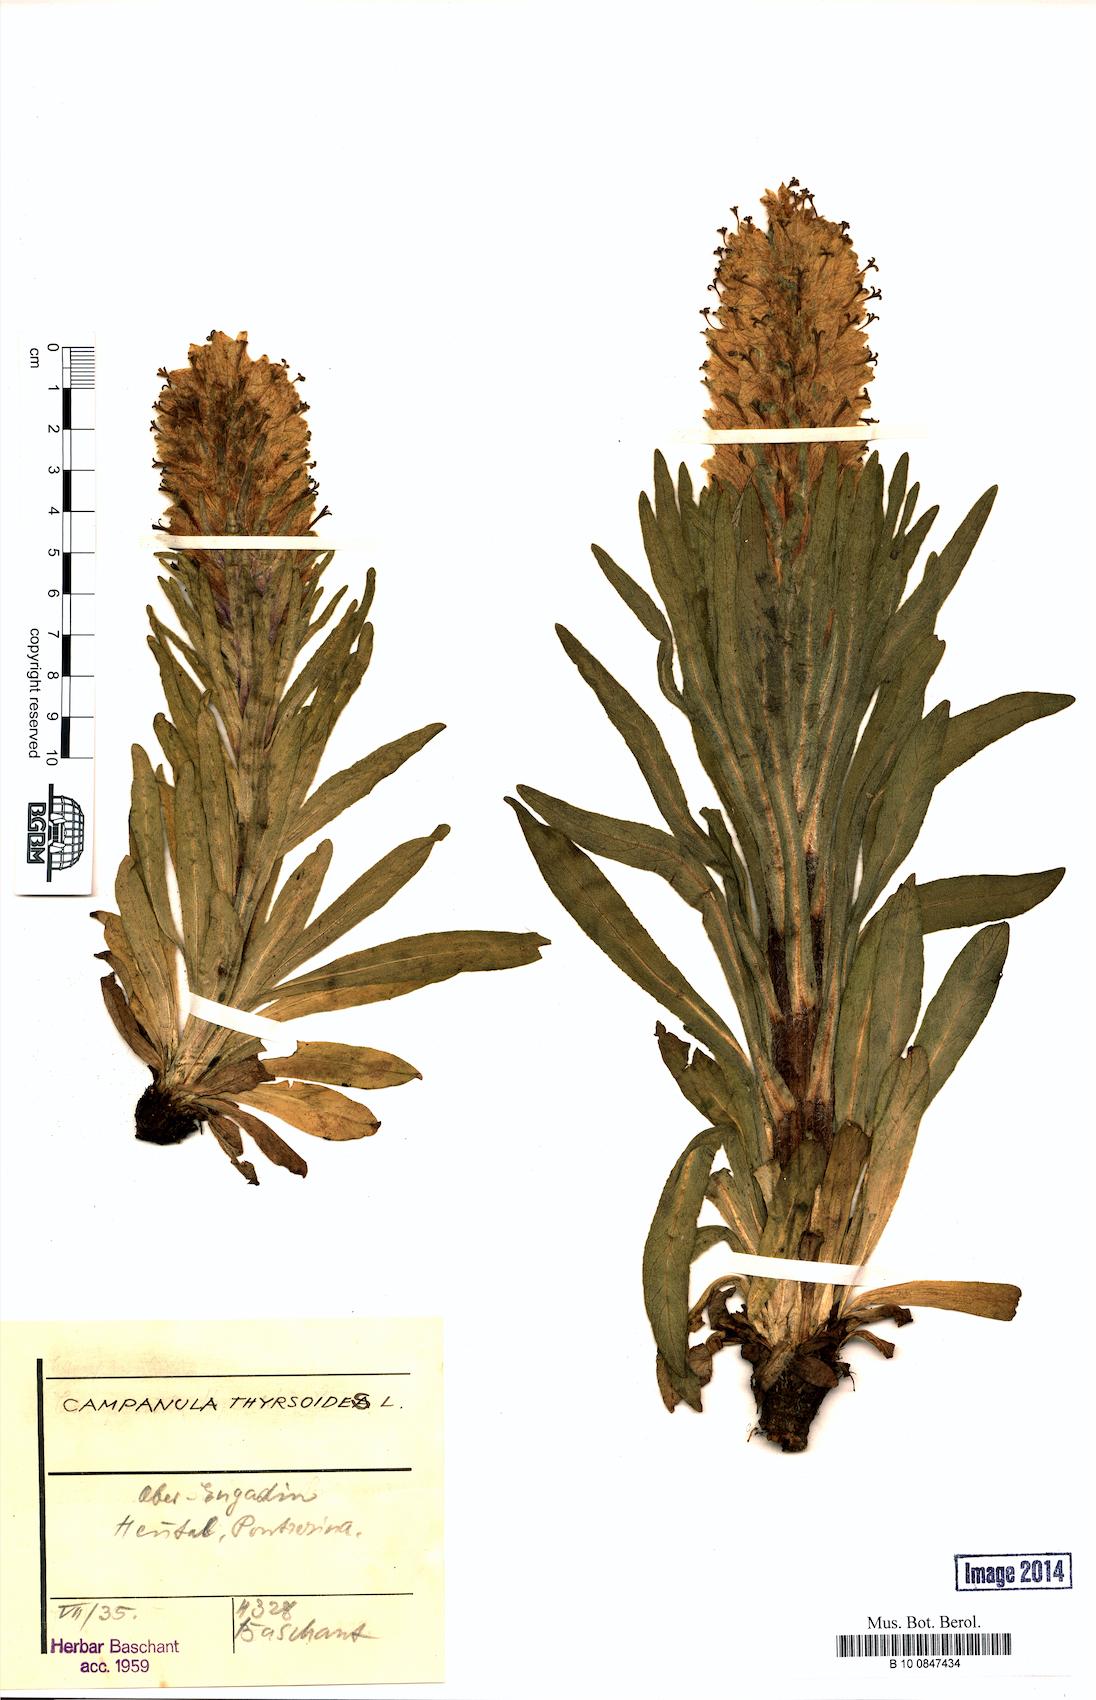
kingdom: Plantae
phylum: Tracheophyta
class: Magnoliopsida
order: Asterales
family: Campanulaceae
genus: Campanula
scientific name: Campanula thyrsoides
